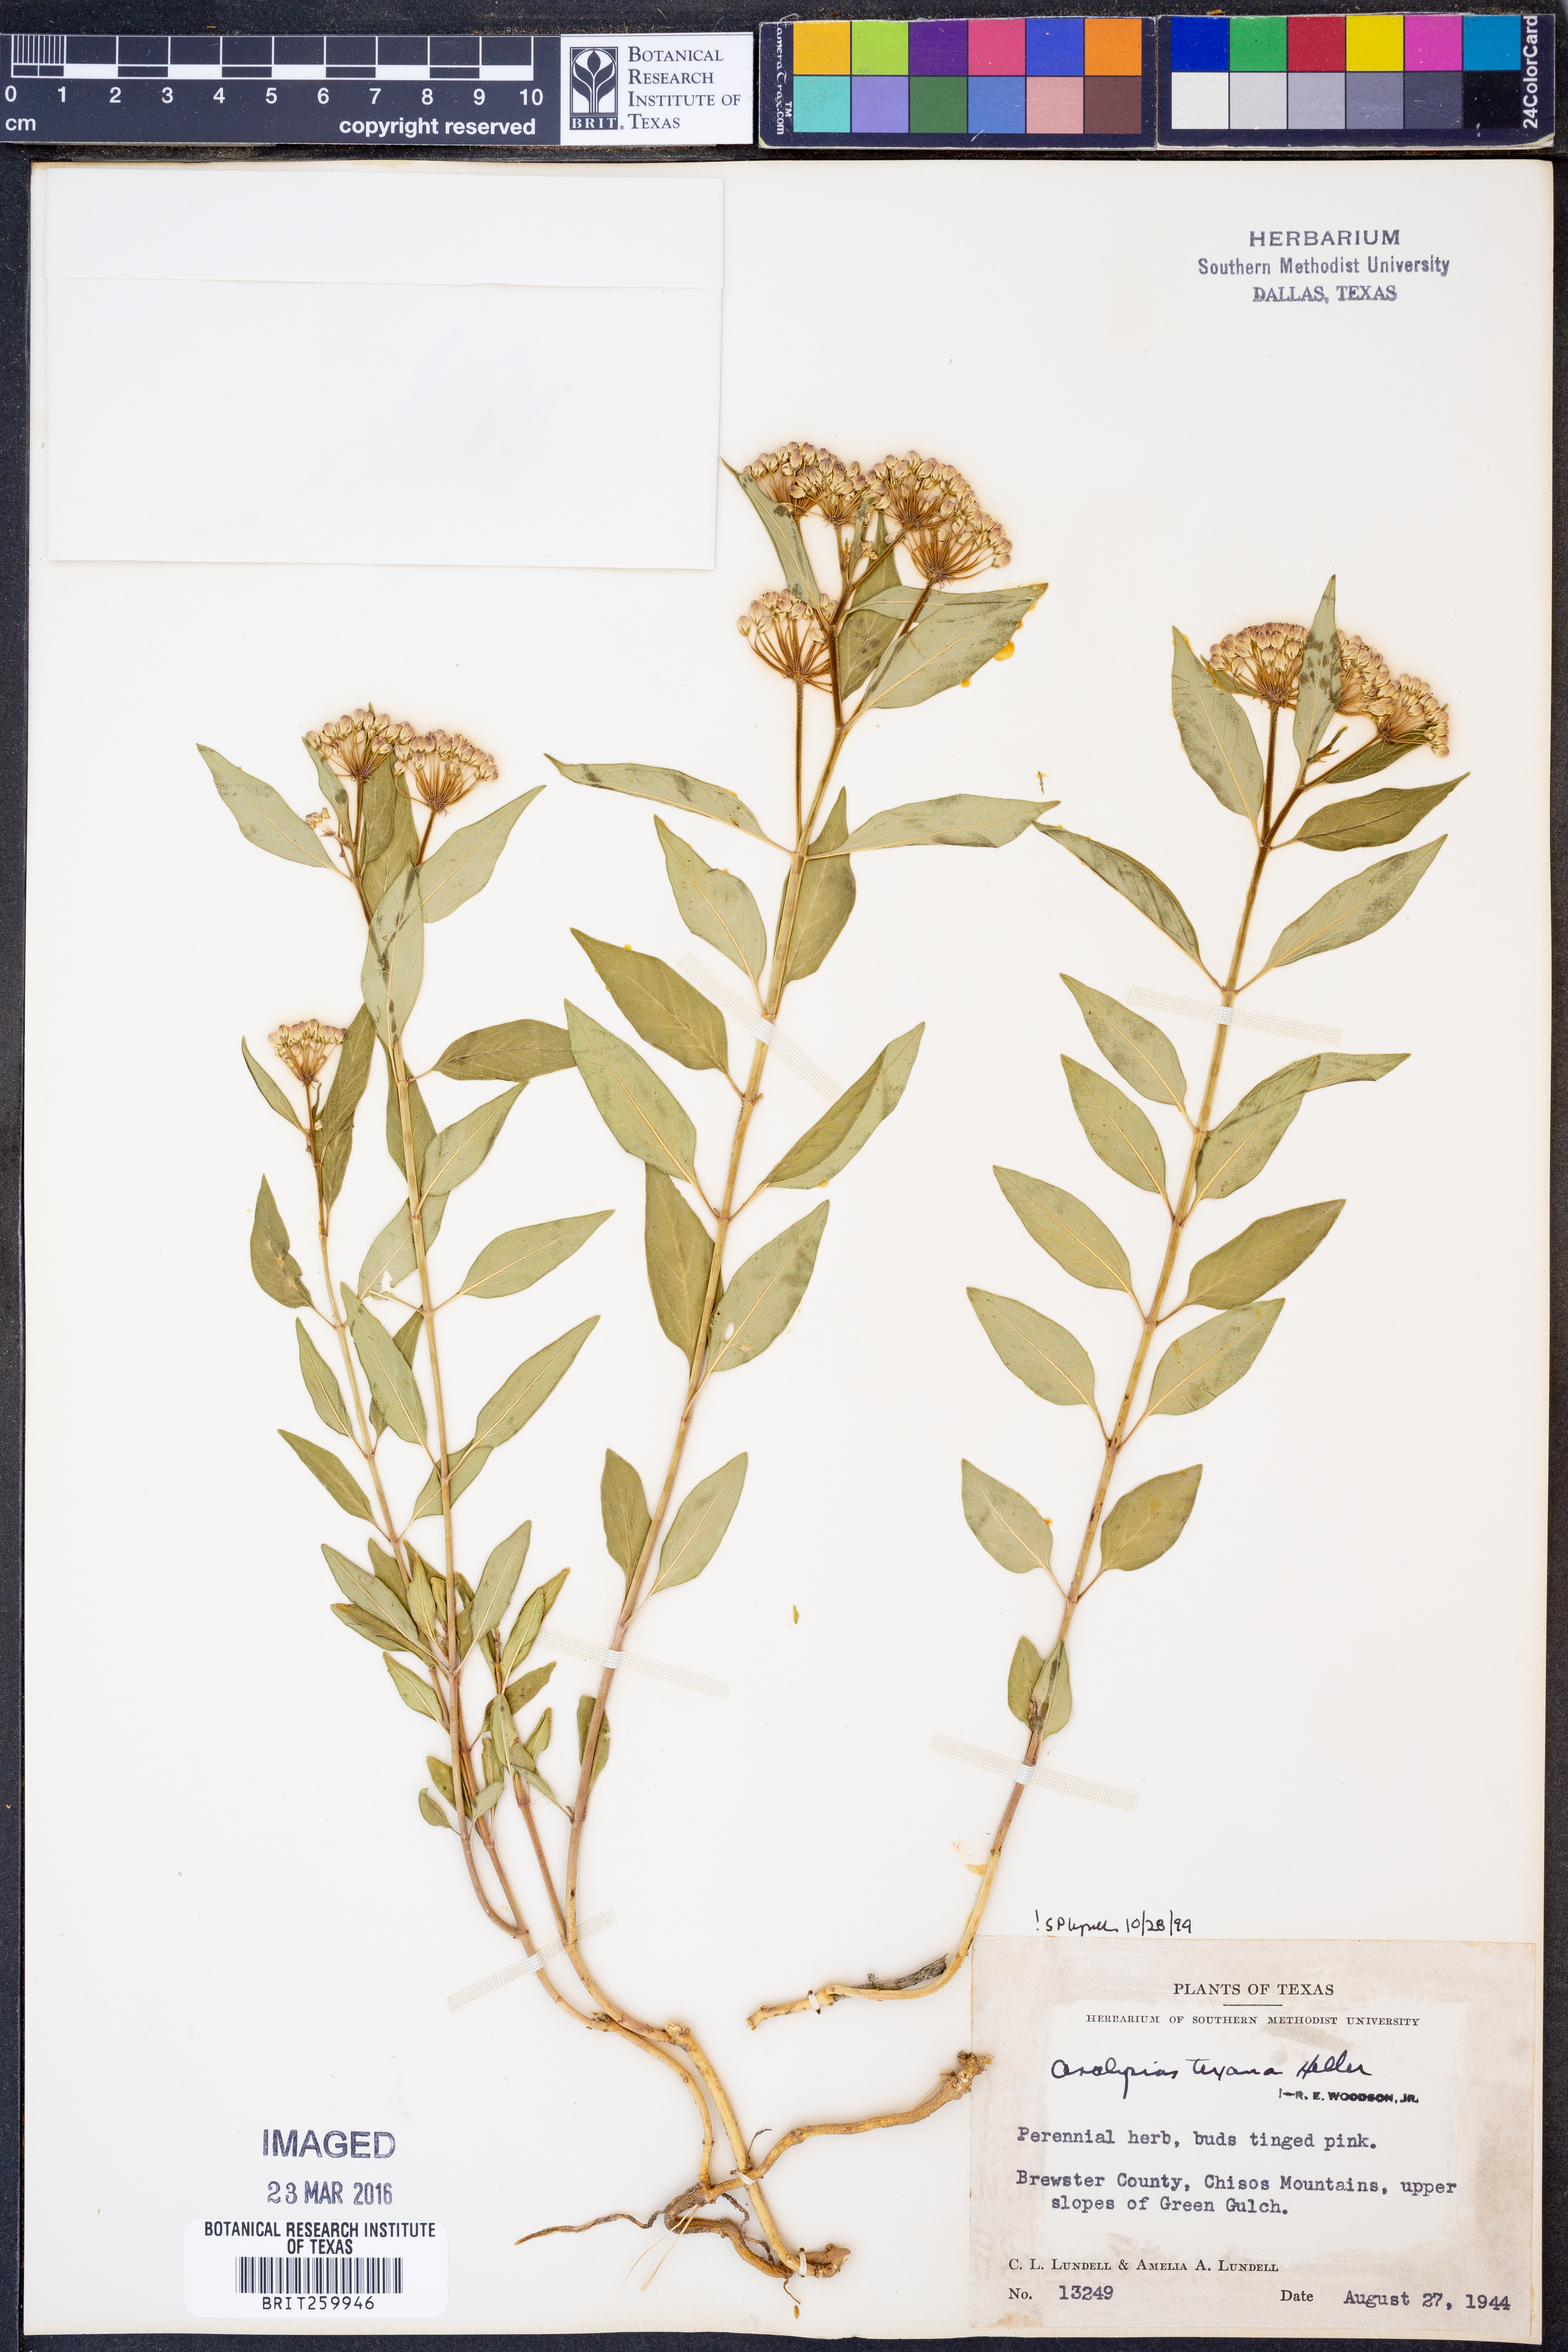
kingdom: Plantae
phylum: Tracheophyta
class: Magnoliopsida
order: Gentianales
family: Apocynaceae
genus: Asclepias
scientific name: Asclepias texana
